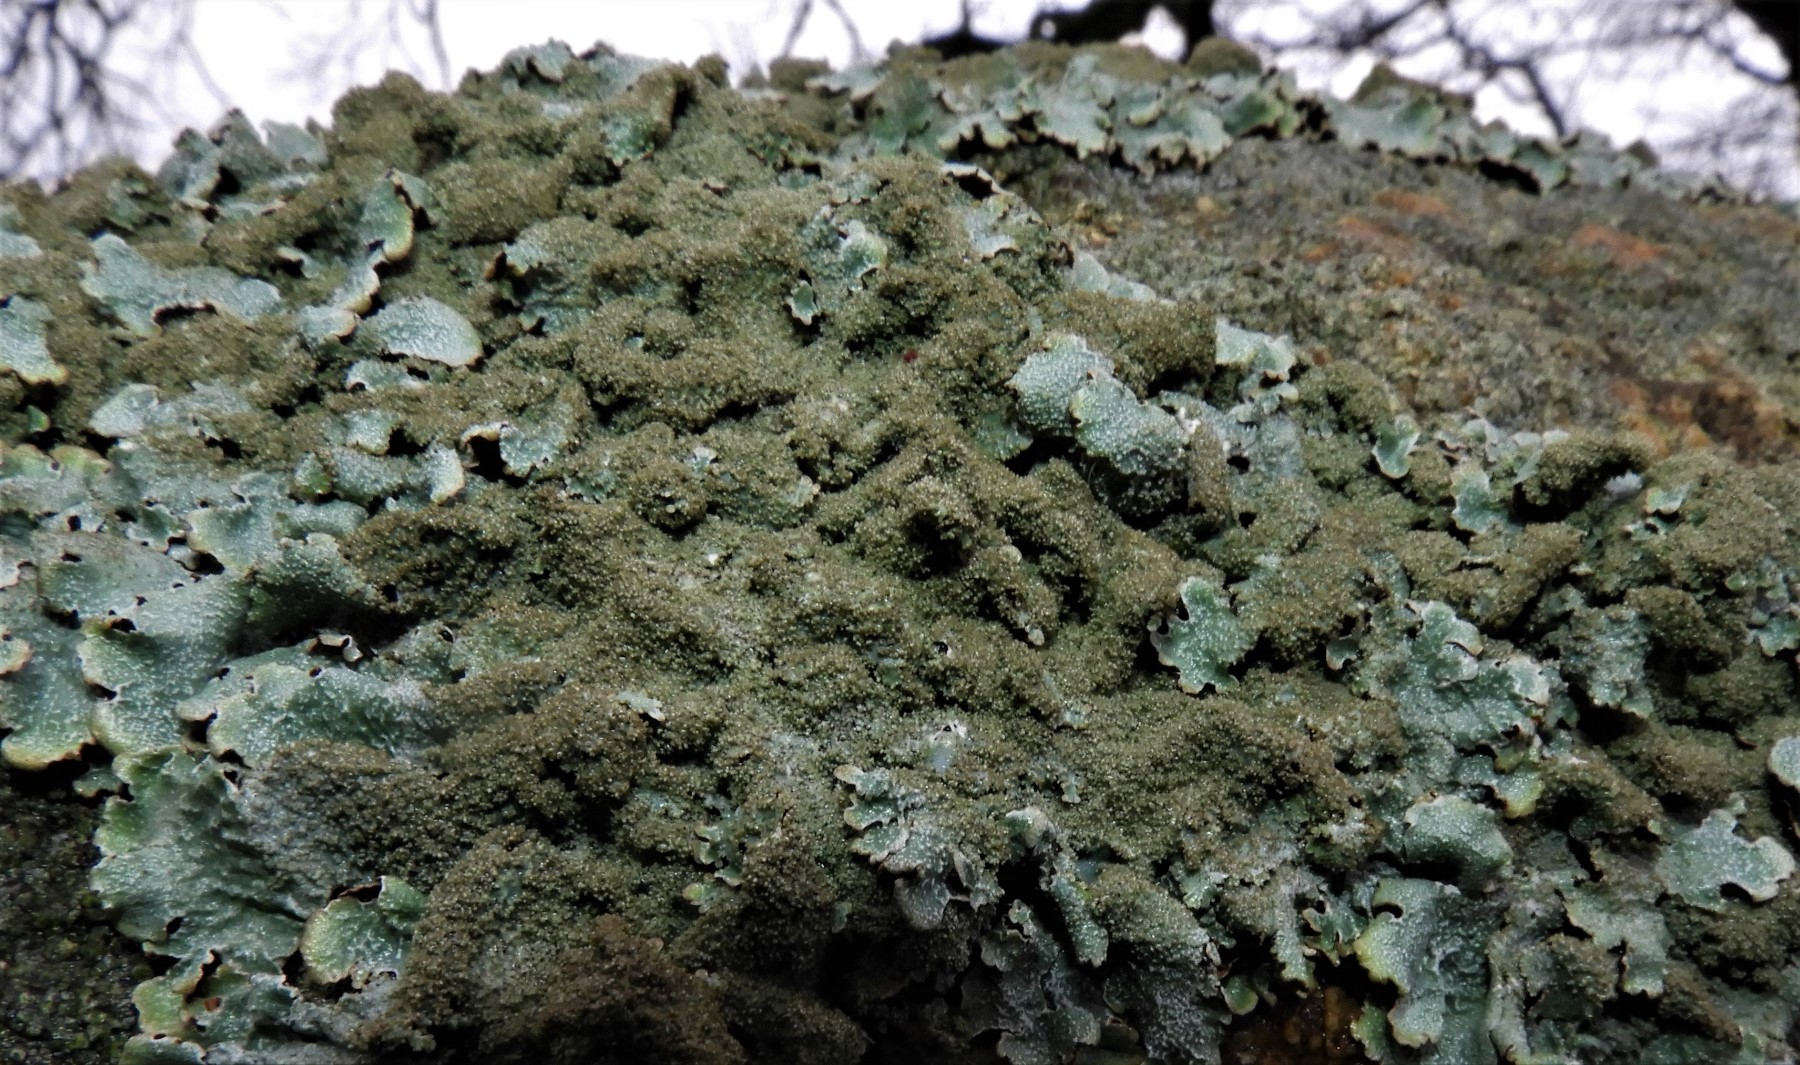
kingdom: Fungi
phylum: Ascomycota
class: Lecanoromycetes
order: Lecanorales
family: Parmeliaceae
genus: Parmelia
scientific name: Parmelia saxatilis
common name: farve-skållav
